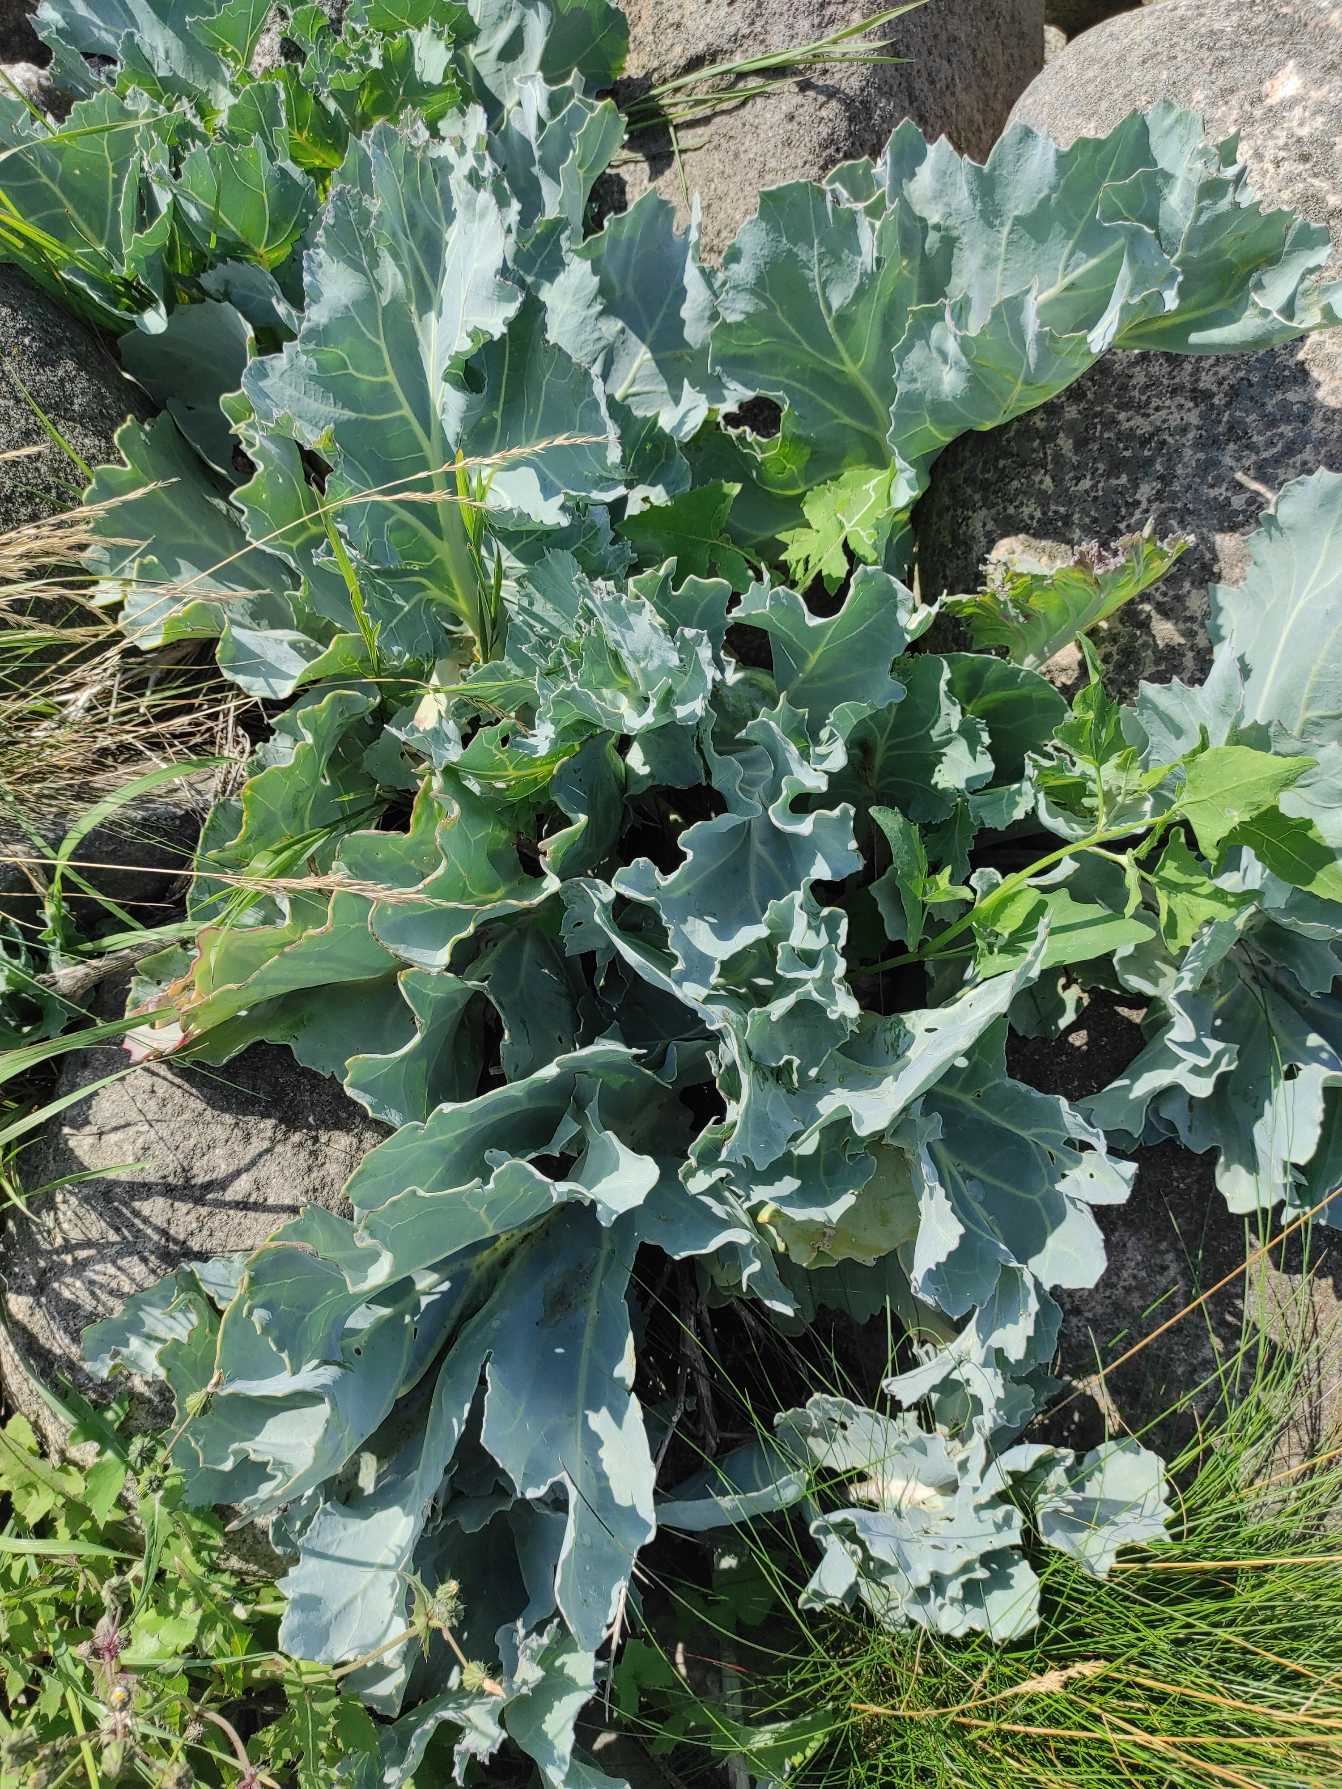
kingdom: Plantae
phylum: Tracheophyta
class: Magnoliopsida
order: Brassicales
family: Brassicaceae
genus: Crambe
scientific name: Crambe maritima
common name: Strandkål
